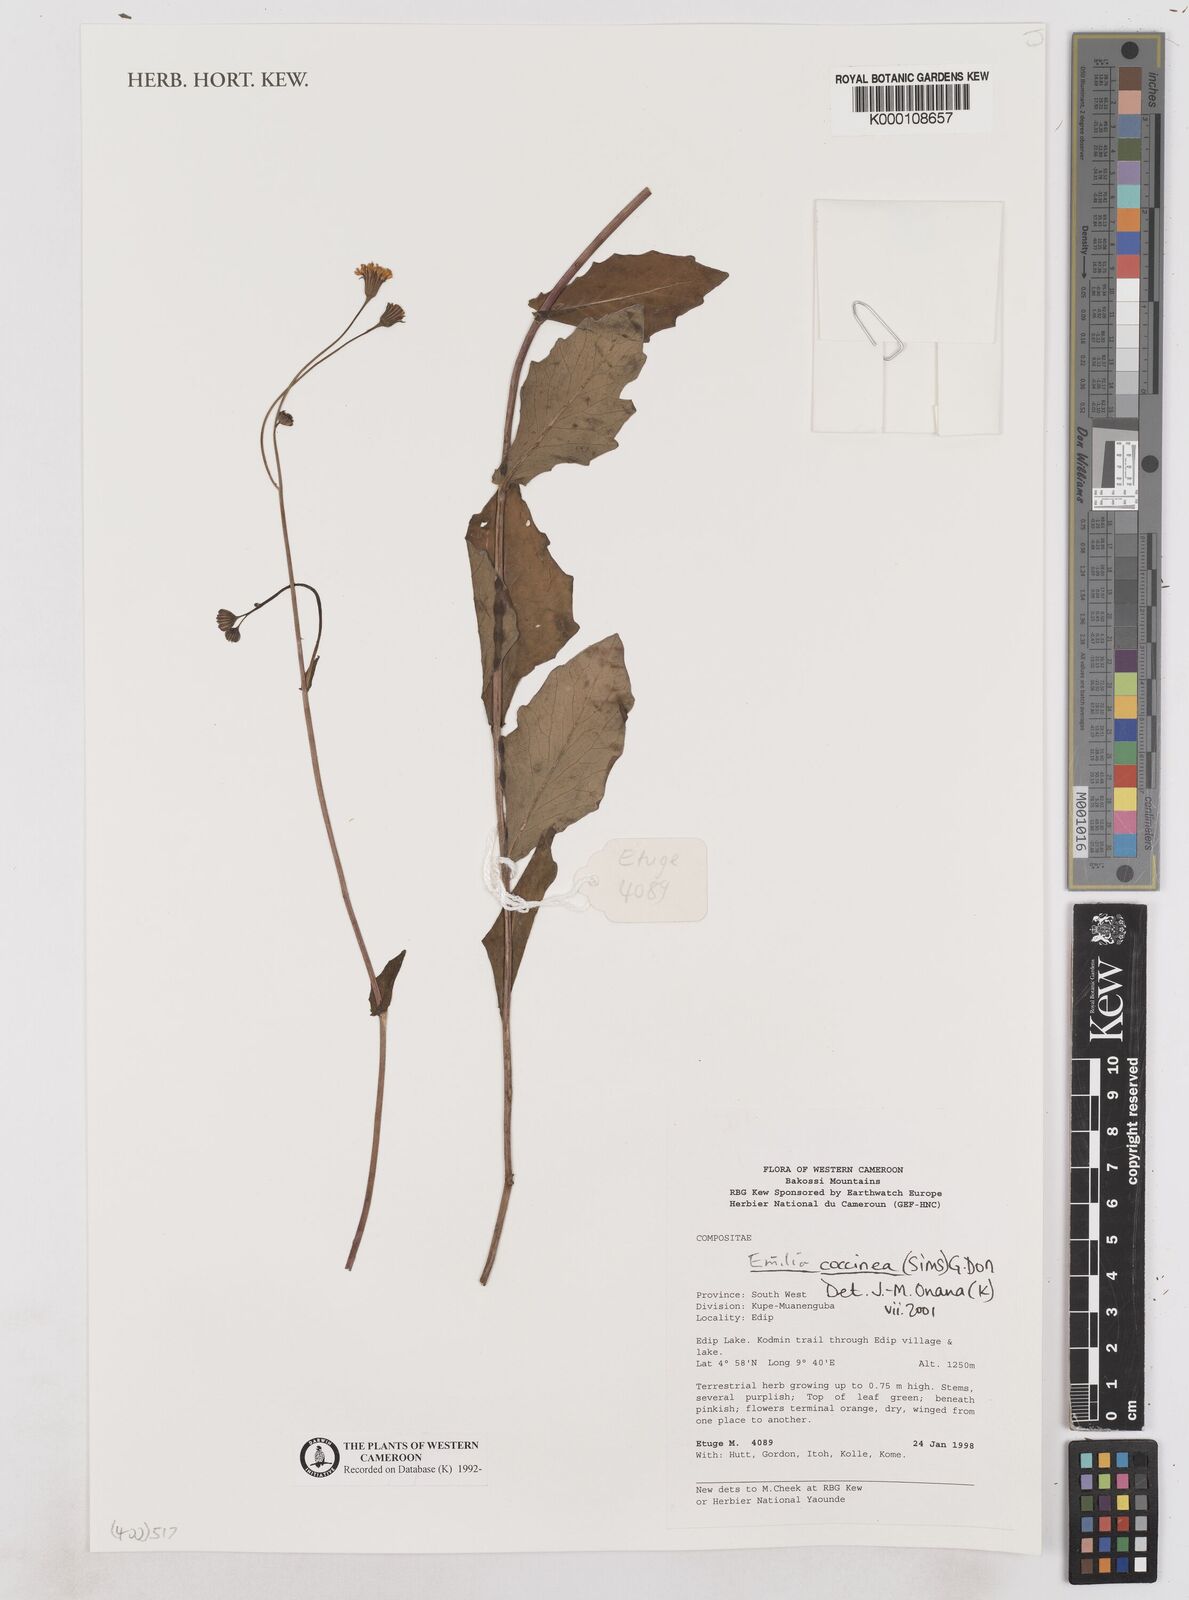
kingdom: Plantae
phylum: Tracheophyta
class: Magnoliopsida
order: Asterales
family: Asteraceae
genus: Emilia
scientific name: Emilia coccinea
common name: Scarlet tasselflower
